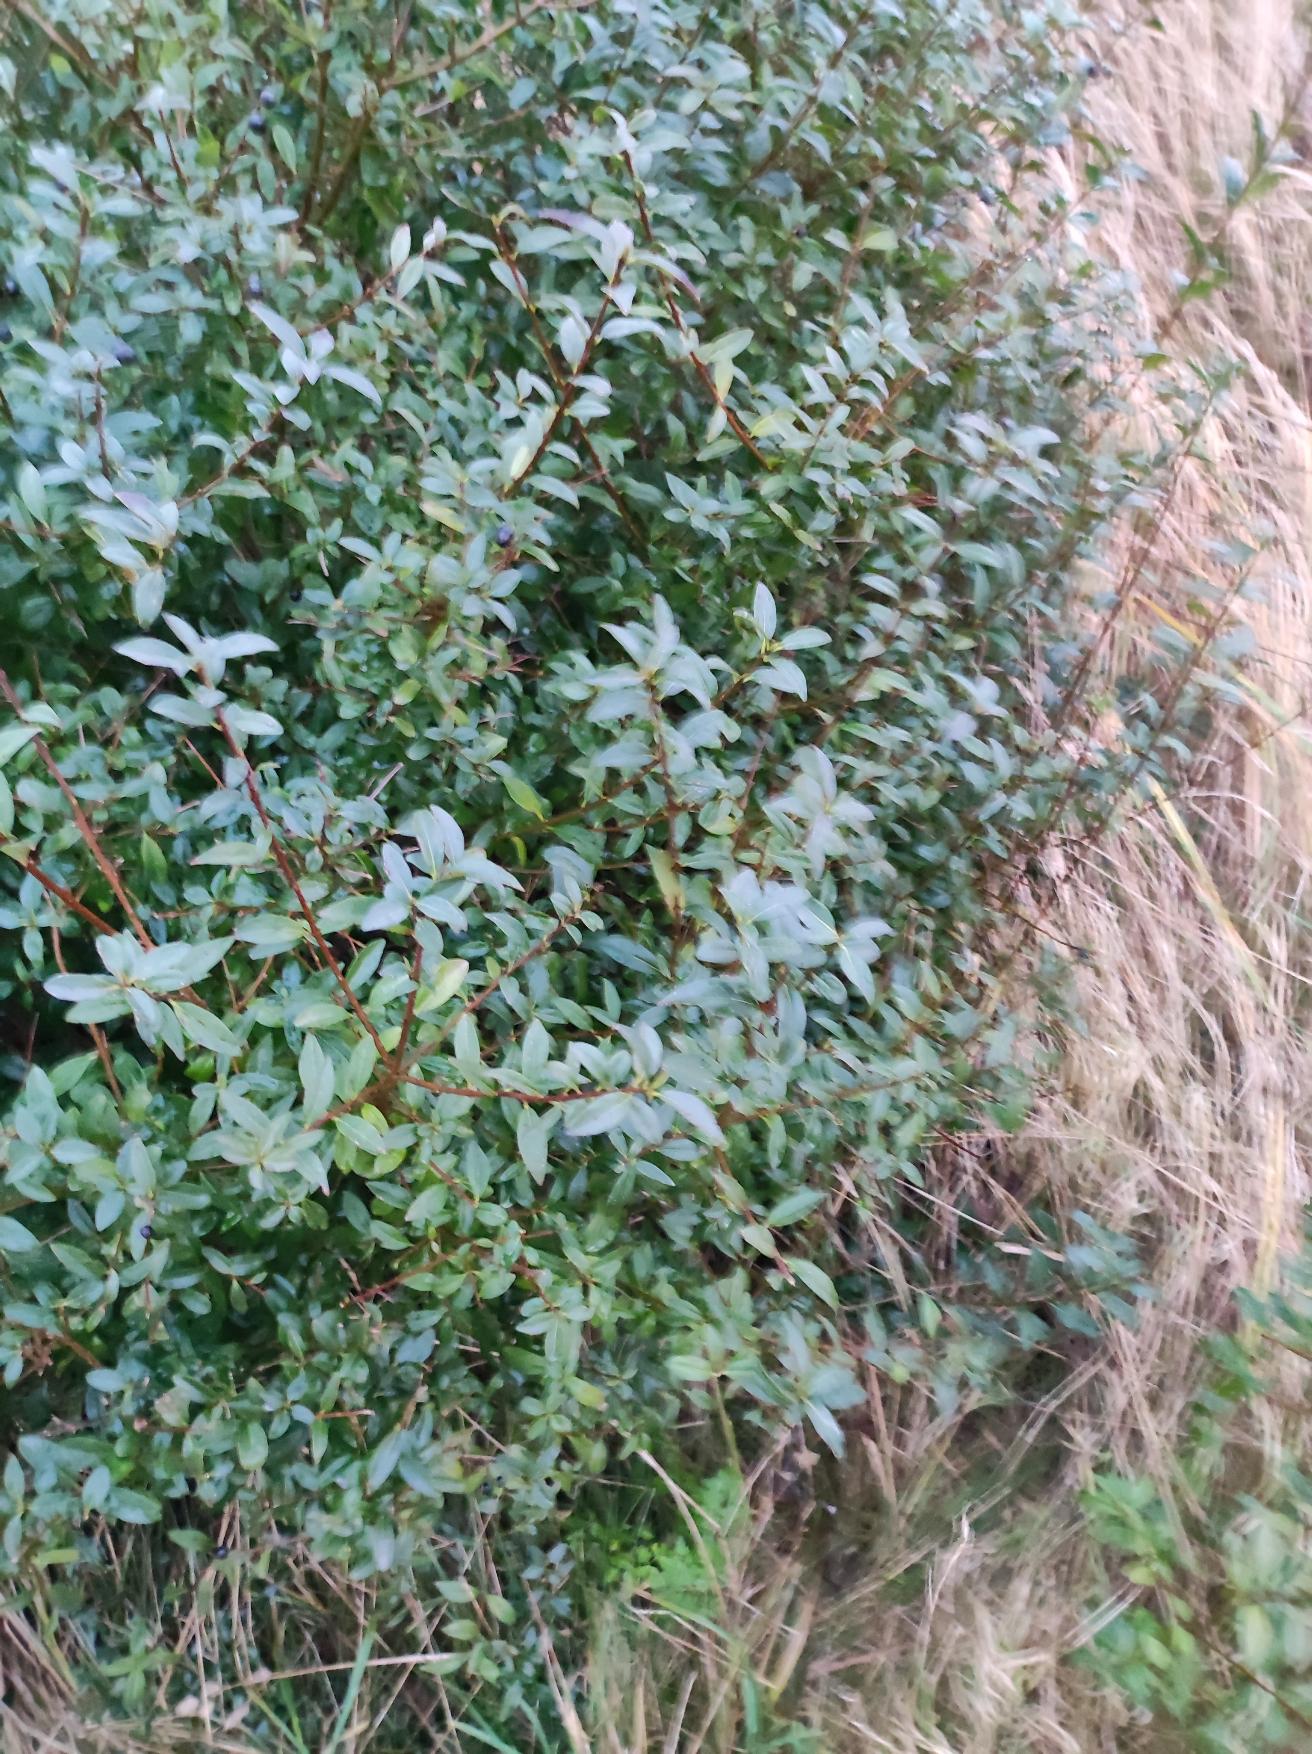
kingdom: Plantae
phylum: Tracheophyta
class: Magnoliopsida
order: Lamiales
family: Oleaceae
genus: Ligustrum
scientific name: Ligustrum vulgare
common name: Liguster
